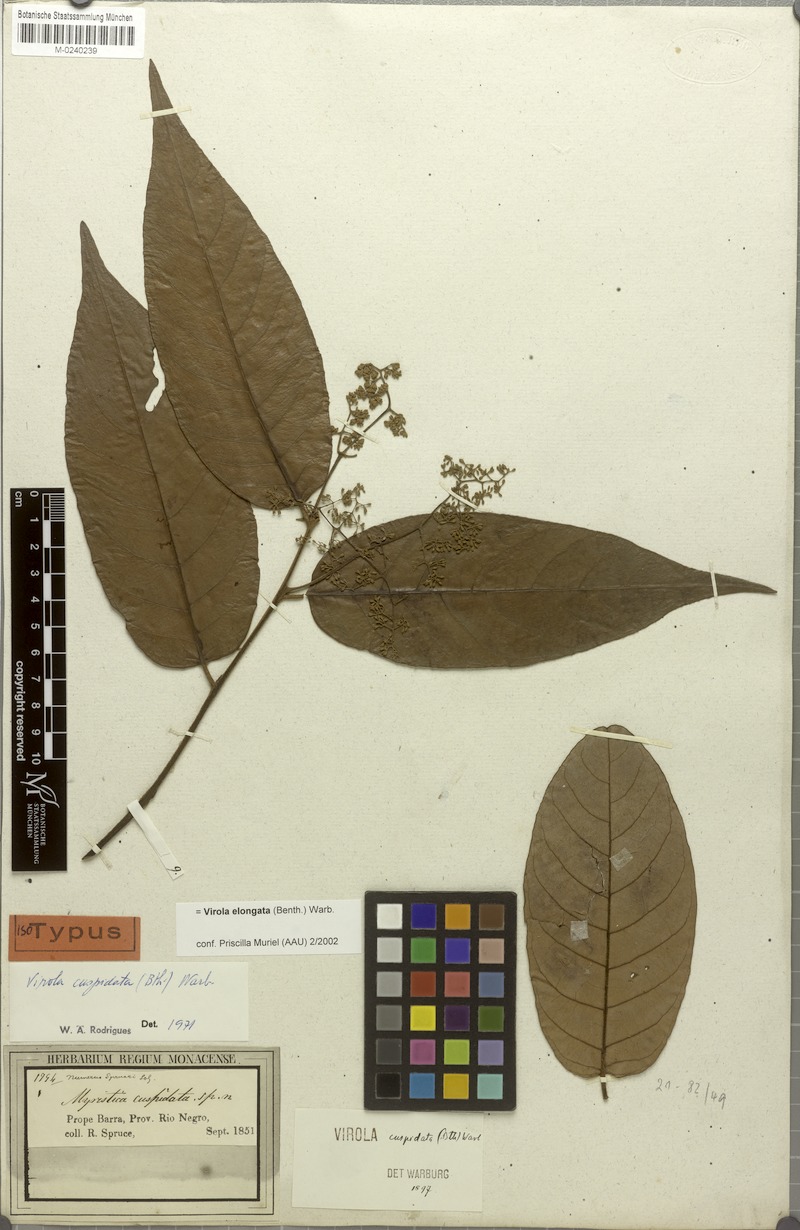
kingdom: Plantae
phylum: Tracheophyta
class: Magnoliopsida
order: Magnoliales
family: Myristicaceae
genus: Virola
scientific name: Virola elongata
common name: Sacred virola
